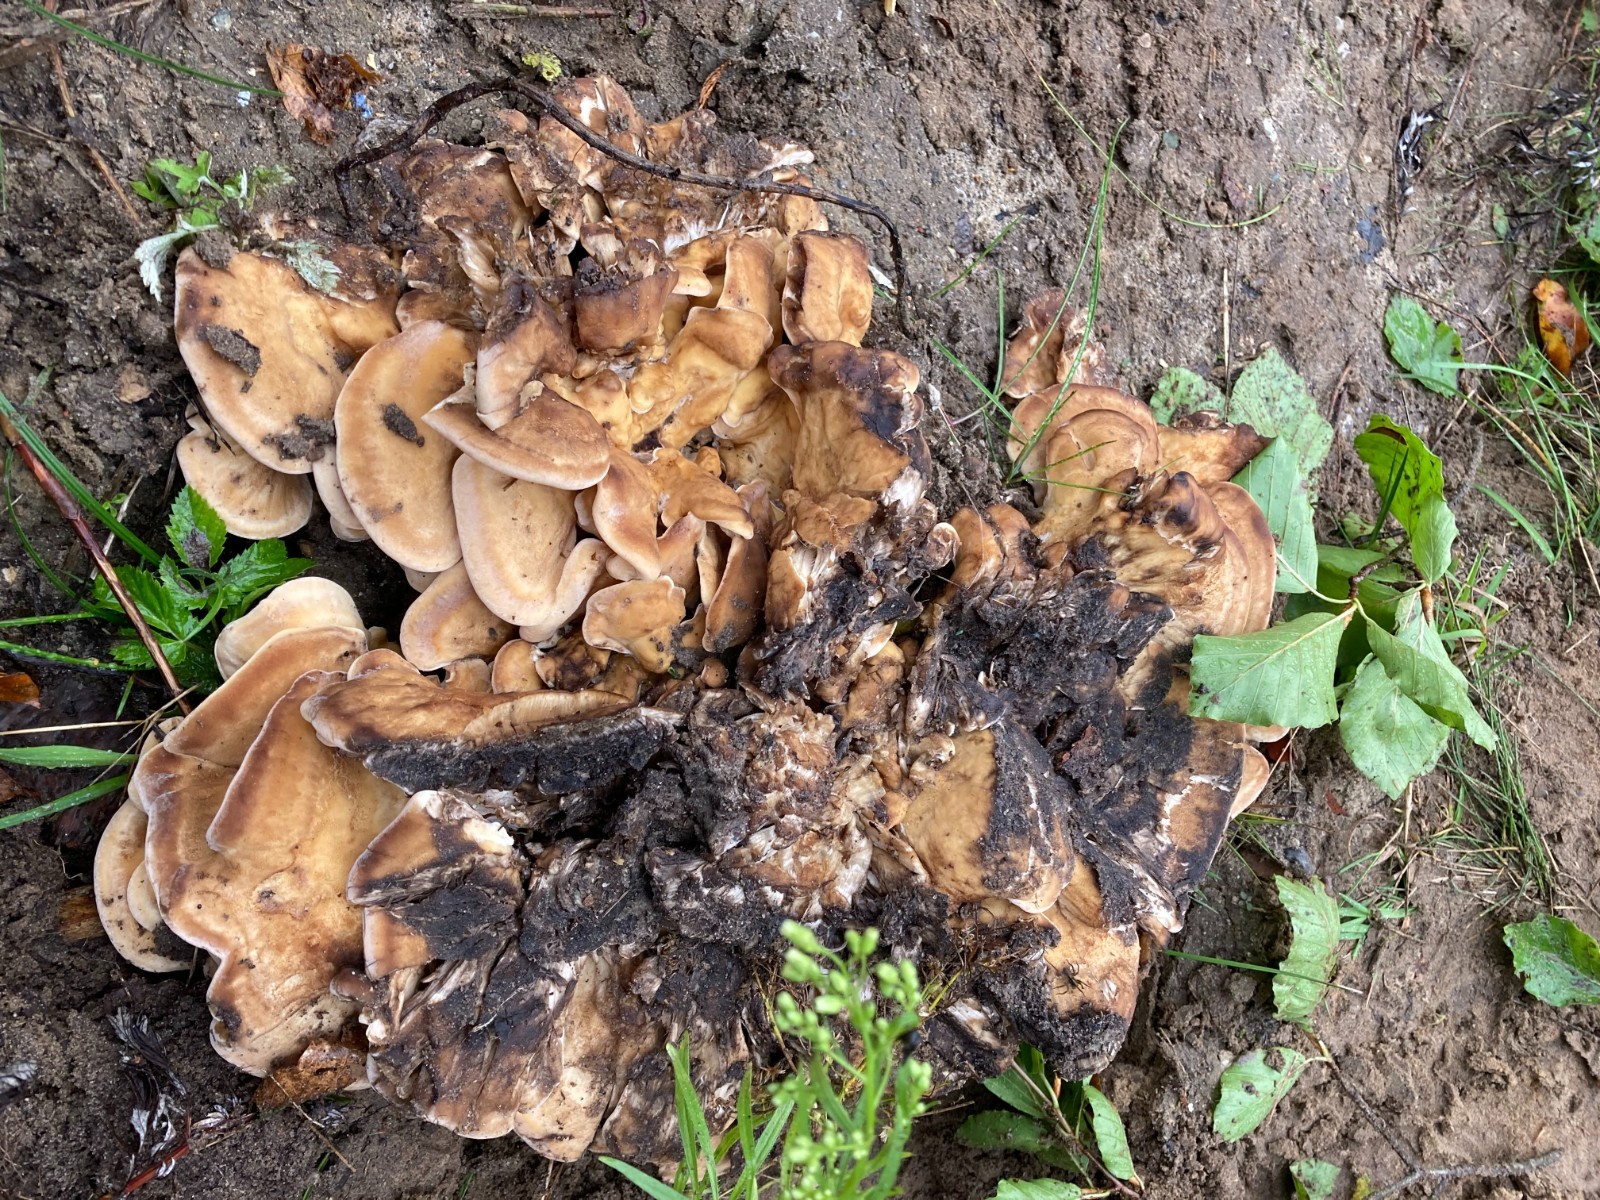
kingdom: Fungi
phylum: Basidiomycota
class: Agaricomycetes
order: Polyporales
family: Meripilaceae
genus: Meripilus
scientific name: Meripilus giganteus
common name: kæmpeporesvamp
